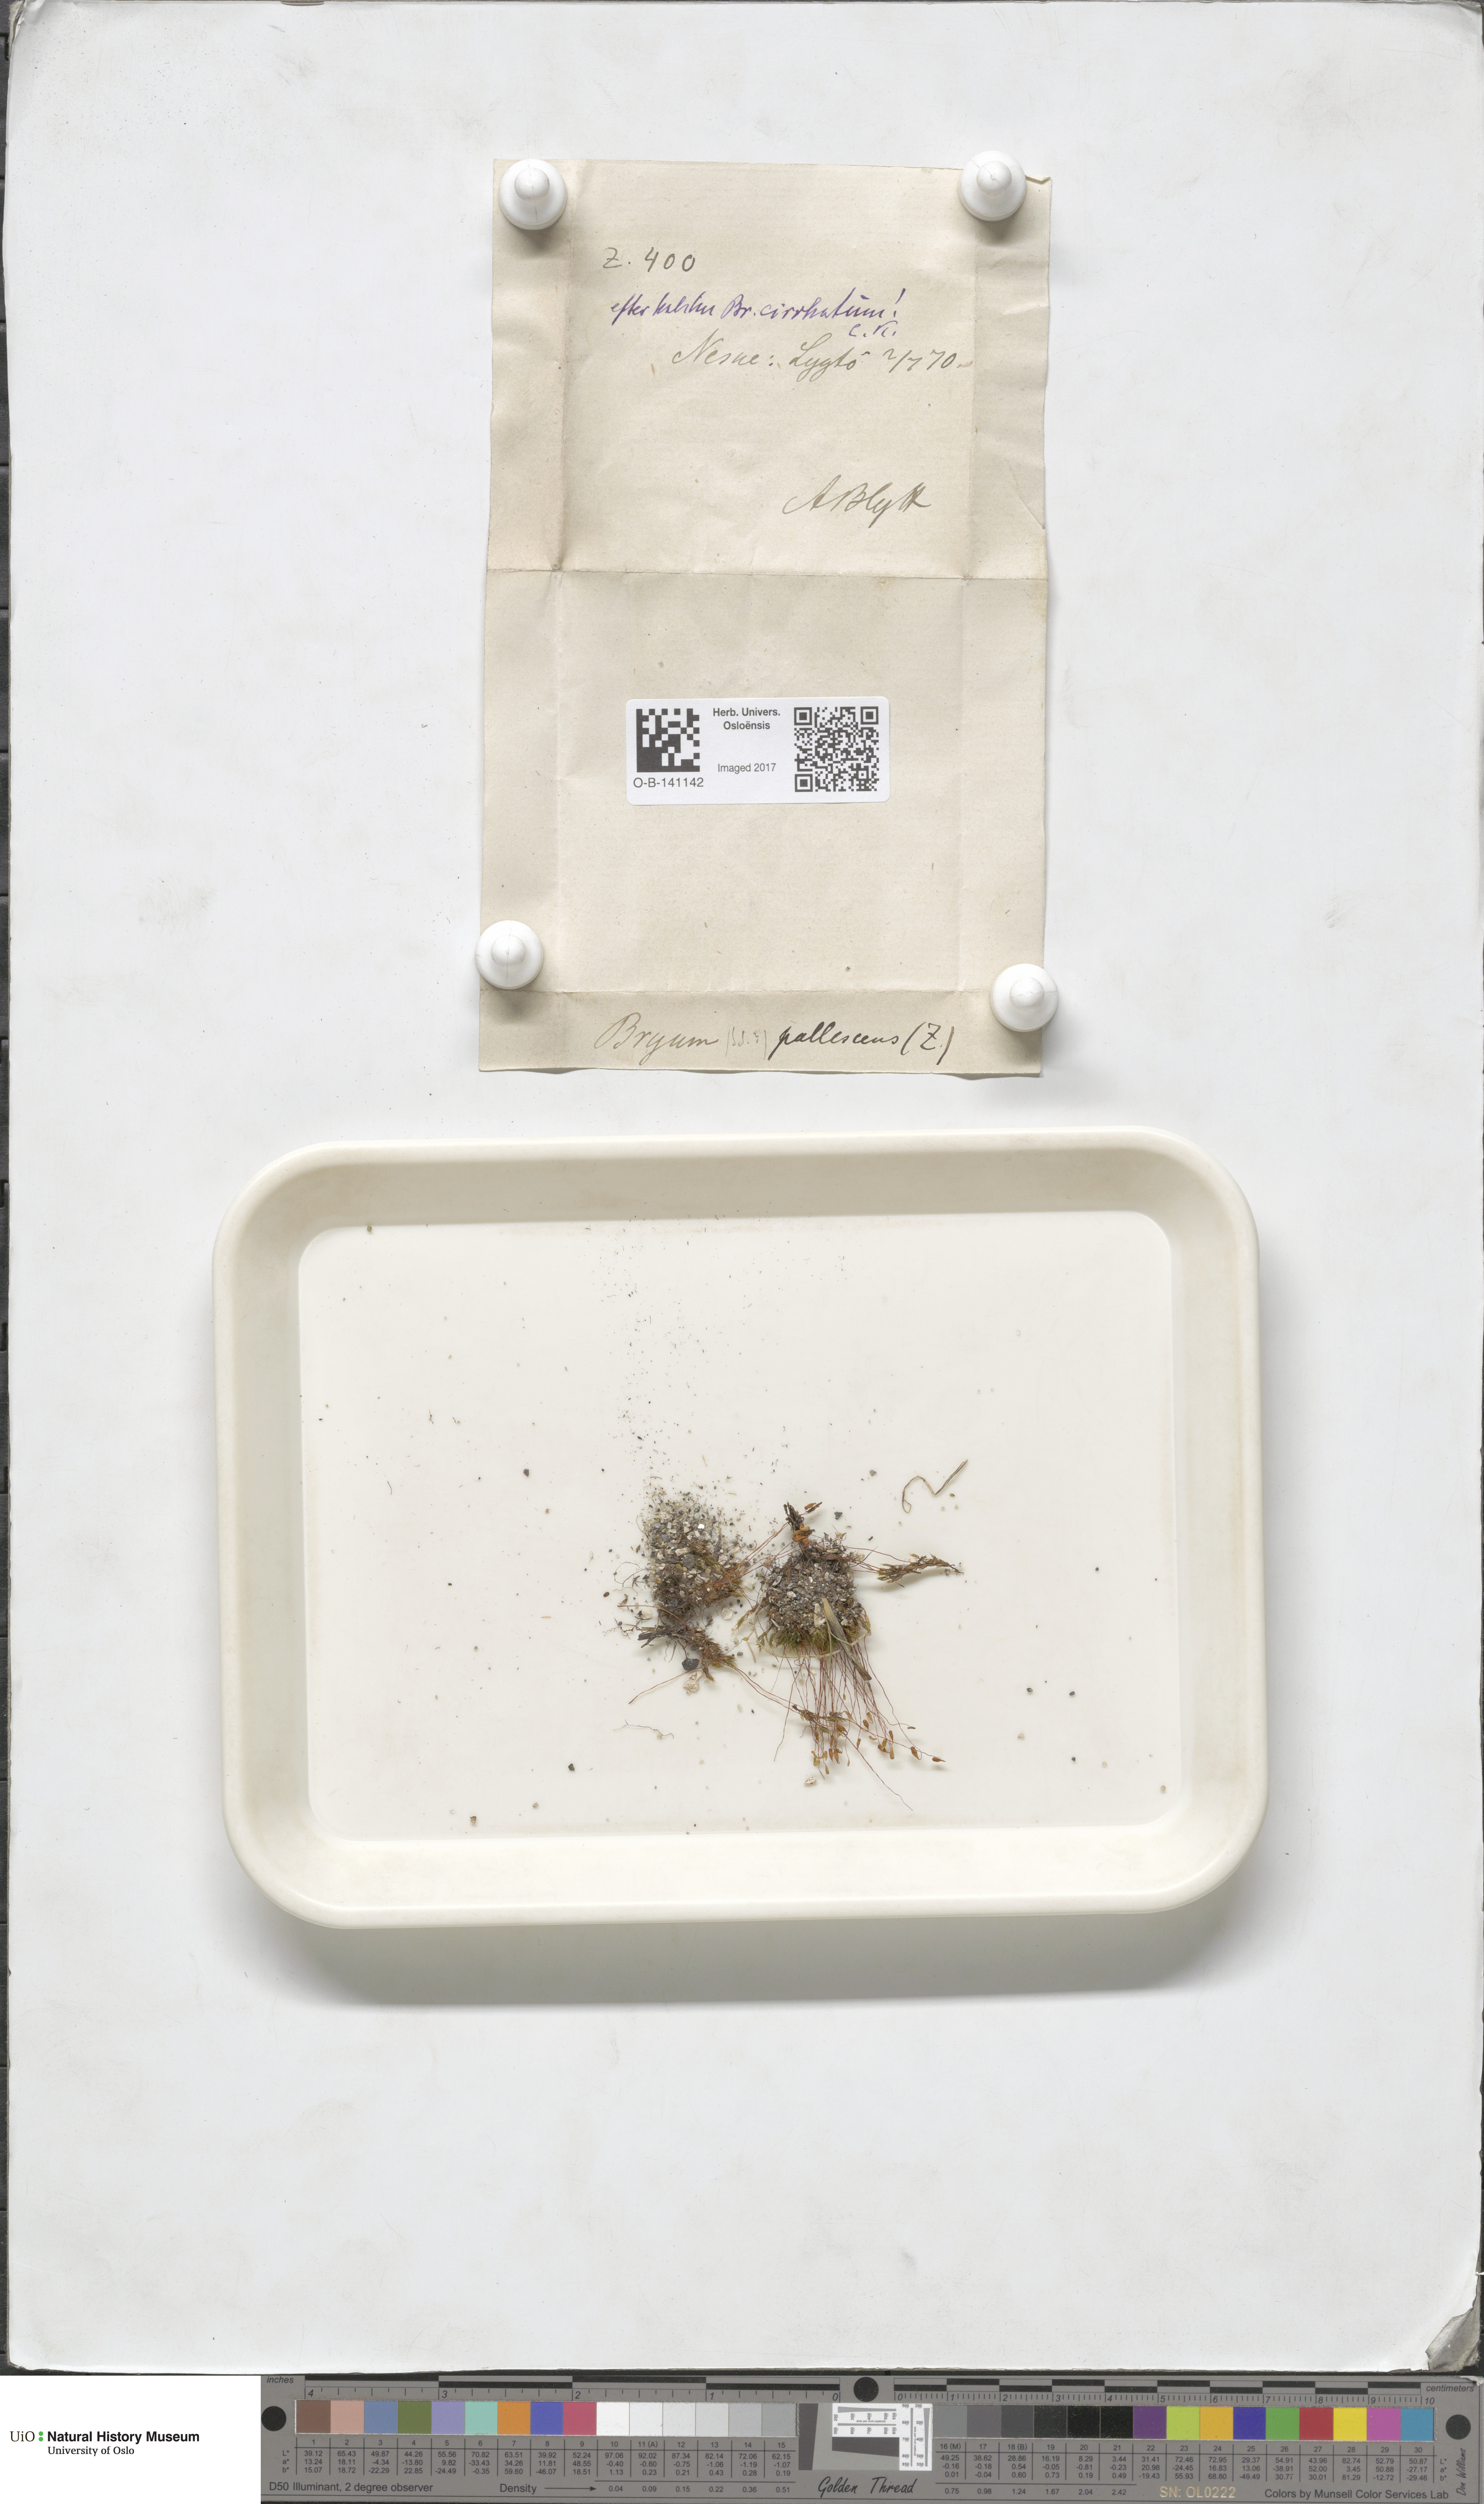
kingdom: Plantae
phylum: Bryophyta
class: Bryopsida
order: Bryales
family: Bryaceae
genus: Ptychostomum
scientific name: Ptychostomum pallens
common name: Pale thread-moss
